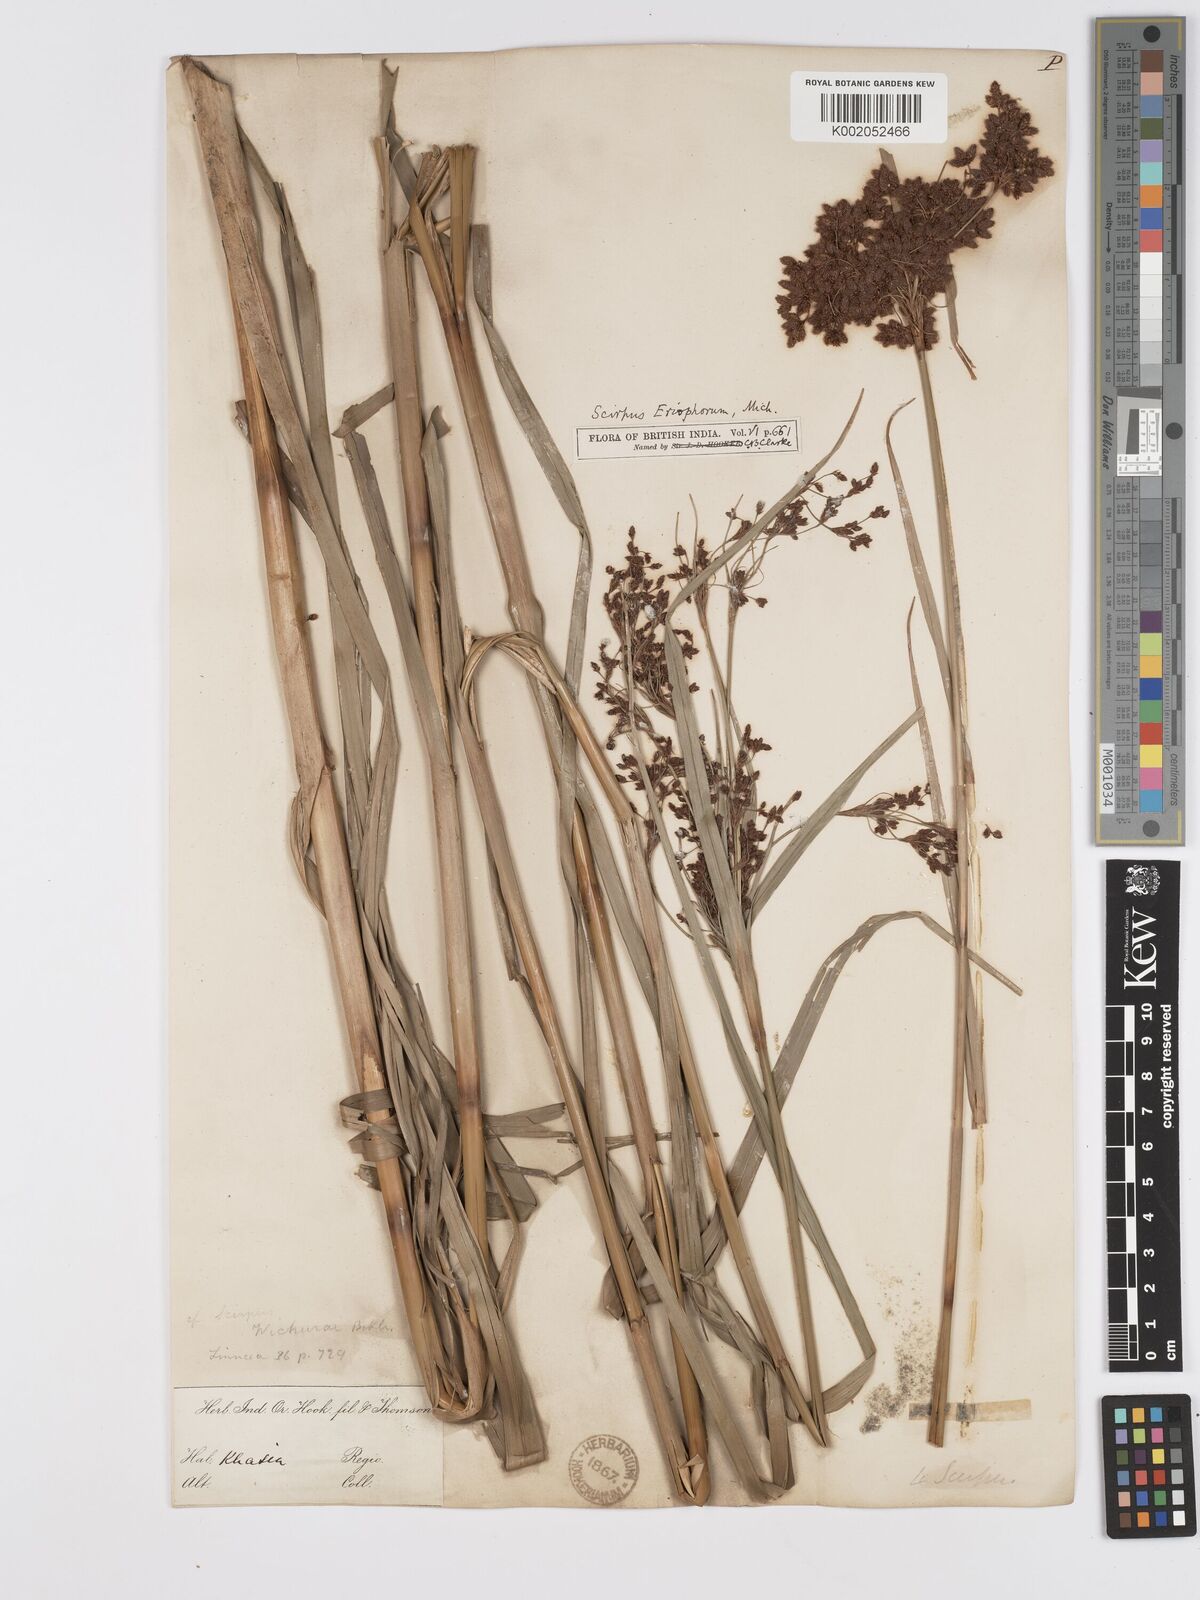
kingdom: Plantae
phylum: Tracheophyta
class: Liliopsida
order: Poales
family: Cyperaceae
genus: Scirpus
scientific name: Scirpus cyperinus
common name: Black-sheathed bulrush
